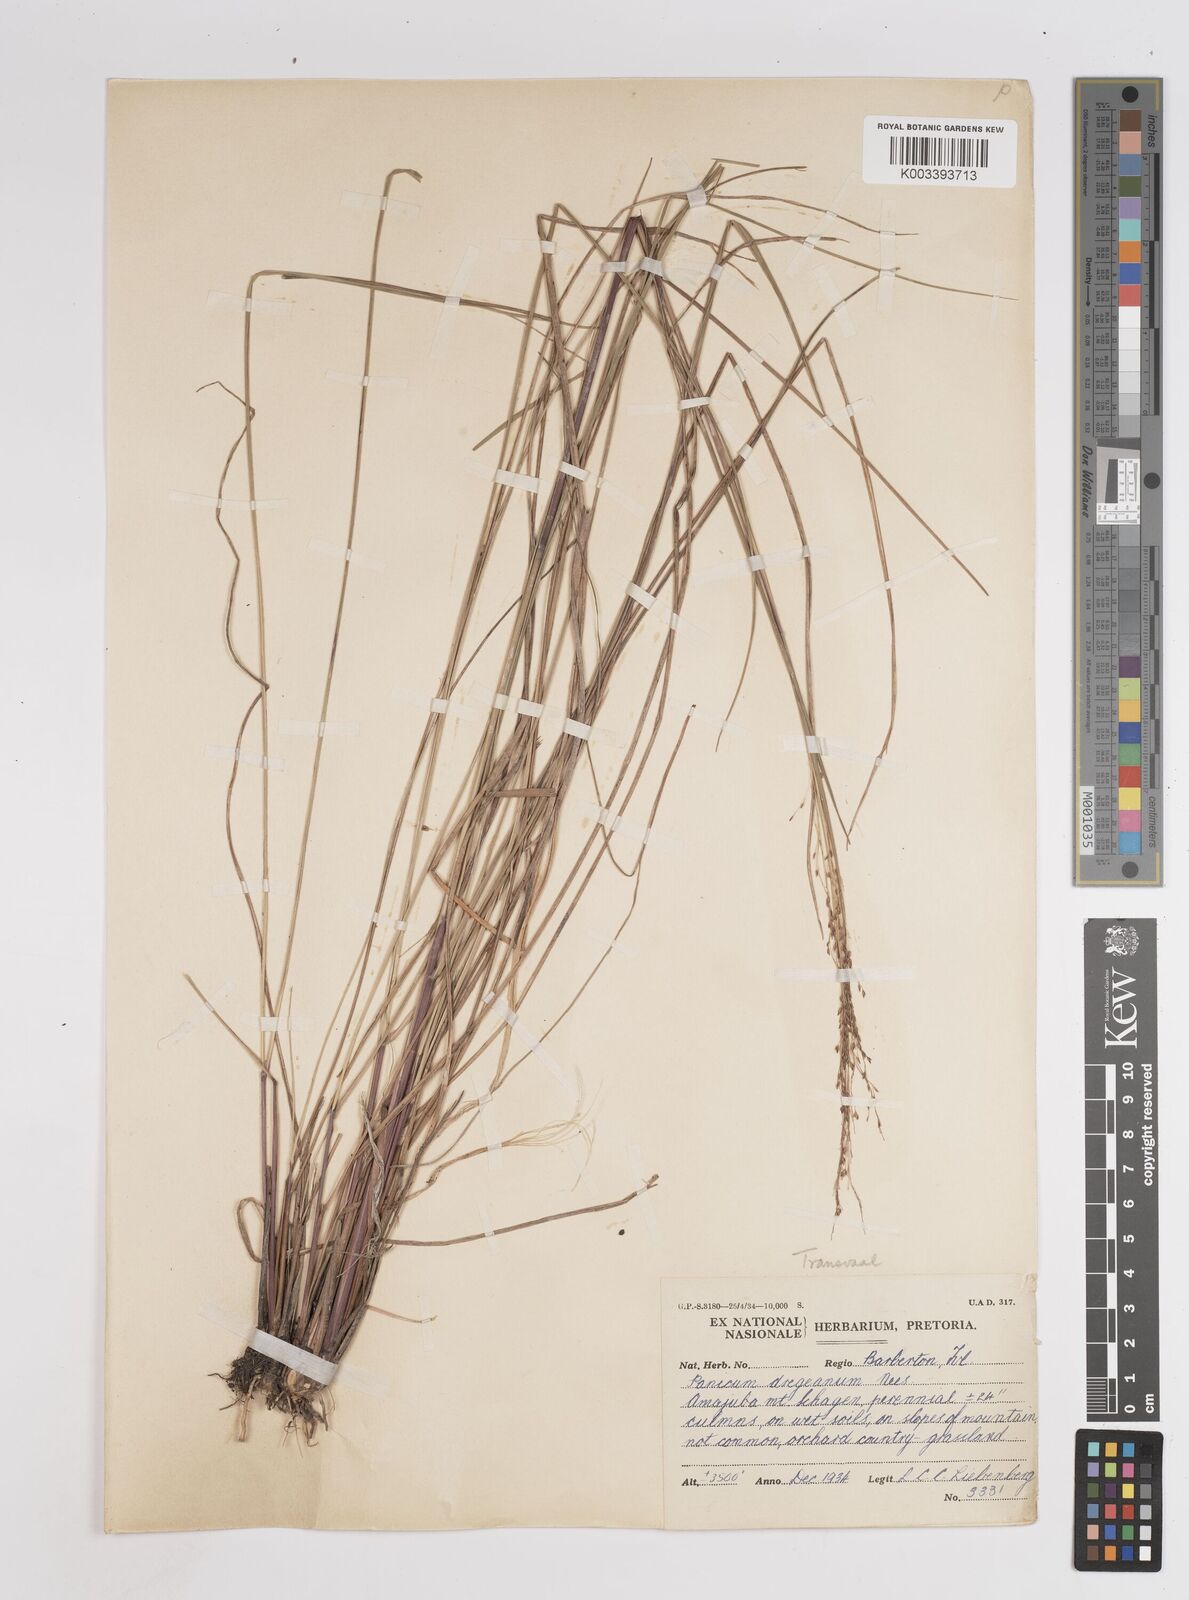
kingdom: Plantae
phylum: Tracheophyta
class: Liliopsida
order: Poales
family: Poaceae
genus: Panicum
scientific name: Panicum dregeanum
